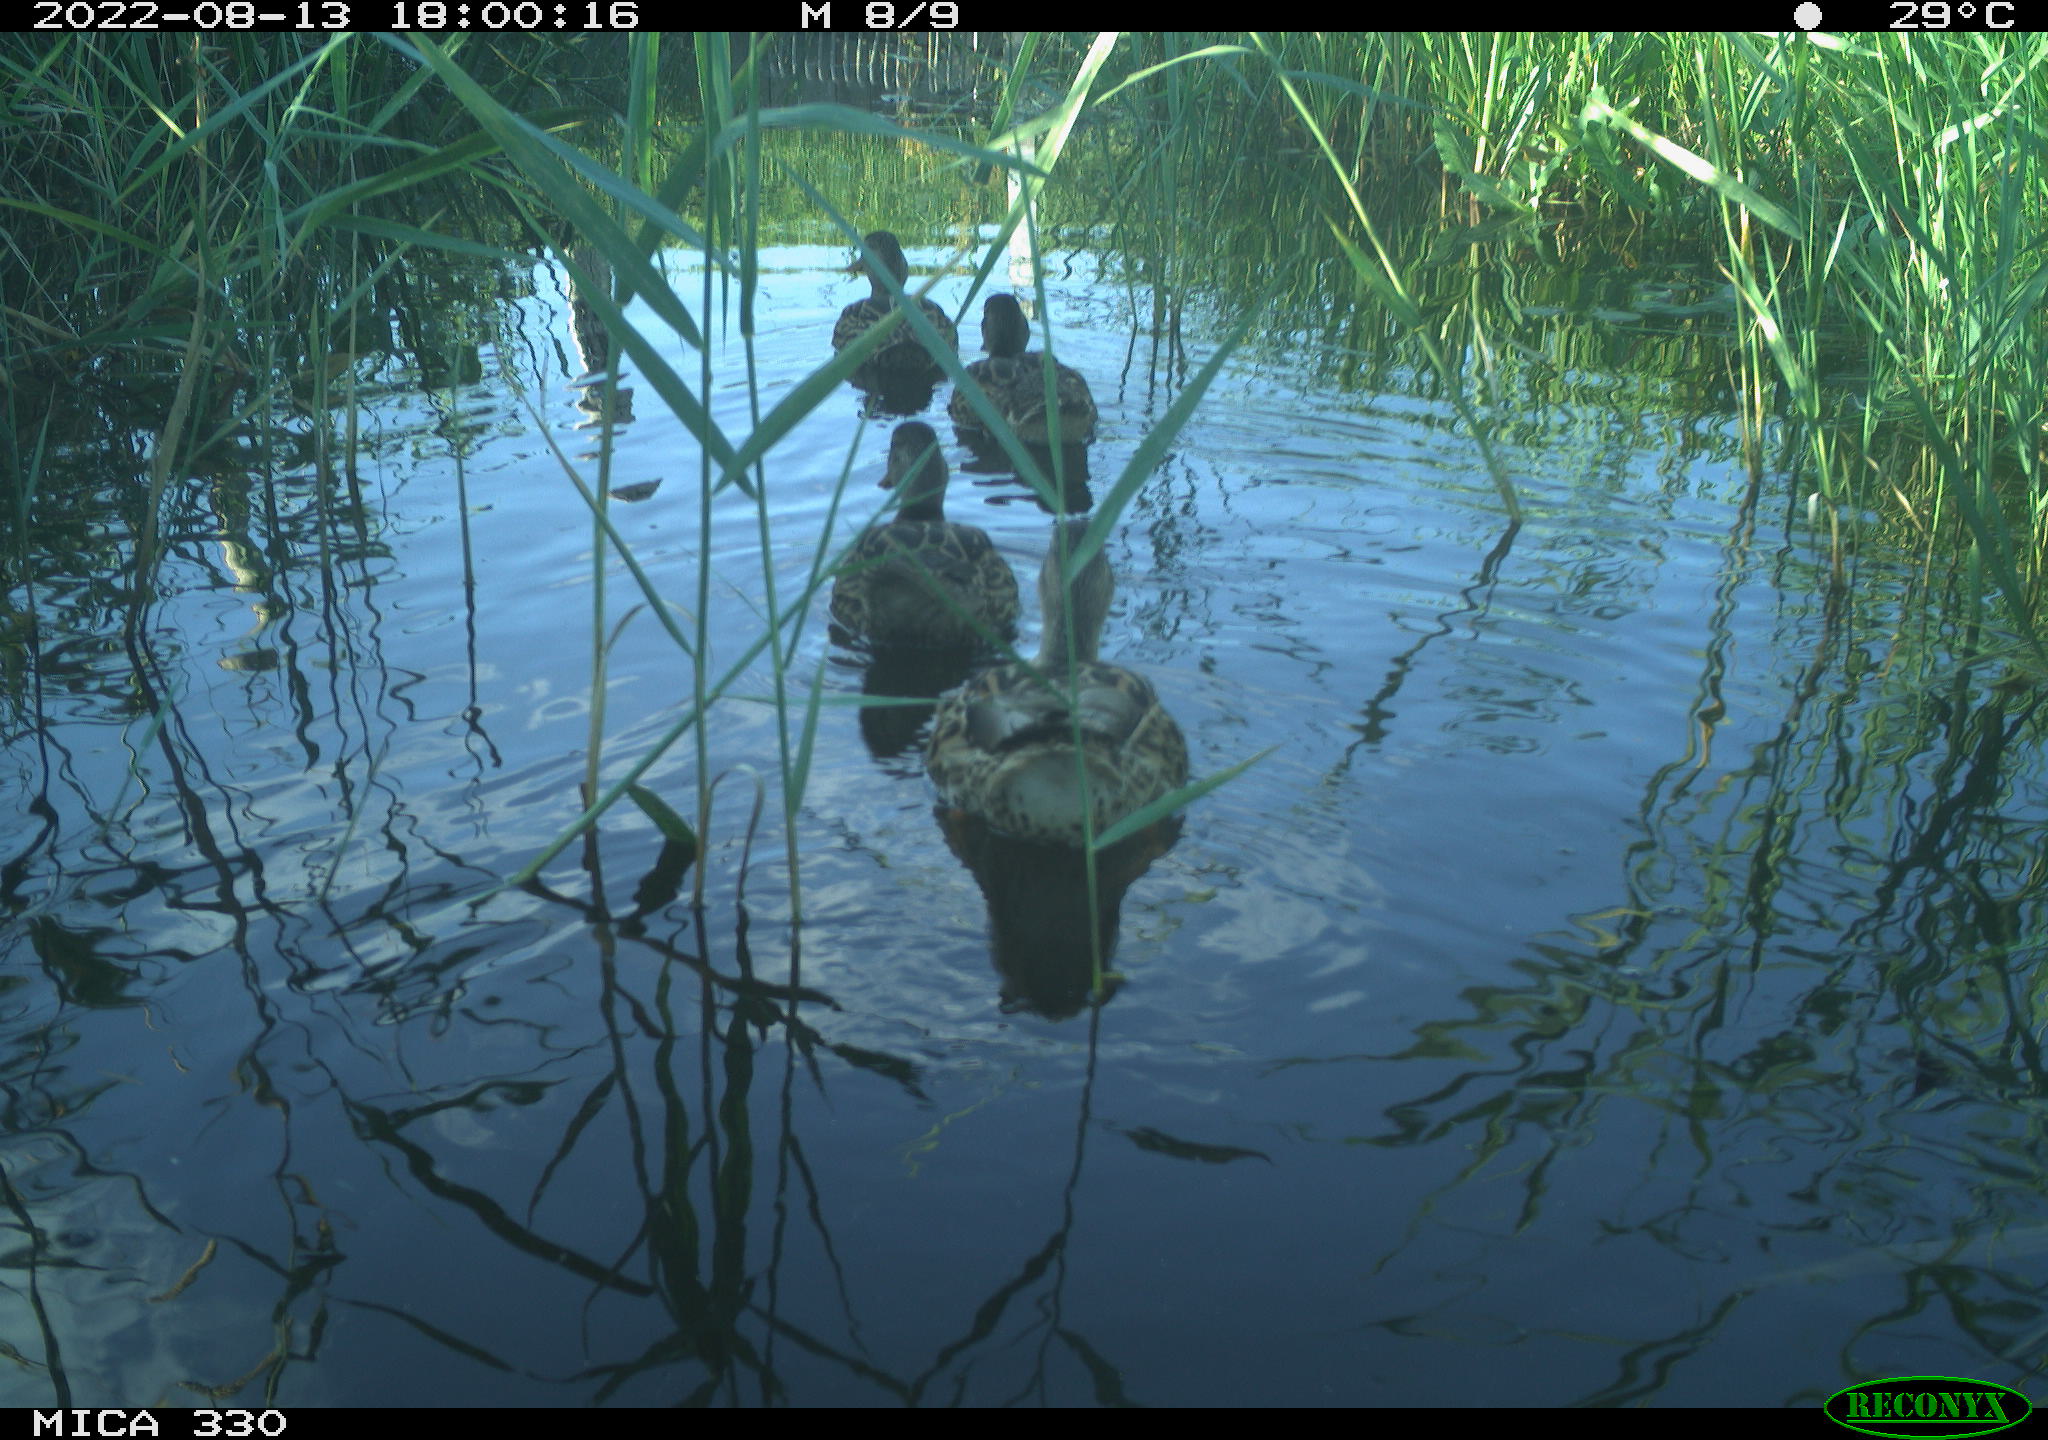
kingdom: Animalia
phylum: Chordata
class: Aves
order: Anseriformes
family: Anatidae
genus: Anas
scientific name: Anas platyrhynchos
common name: Mallard
